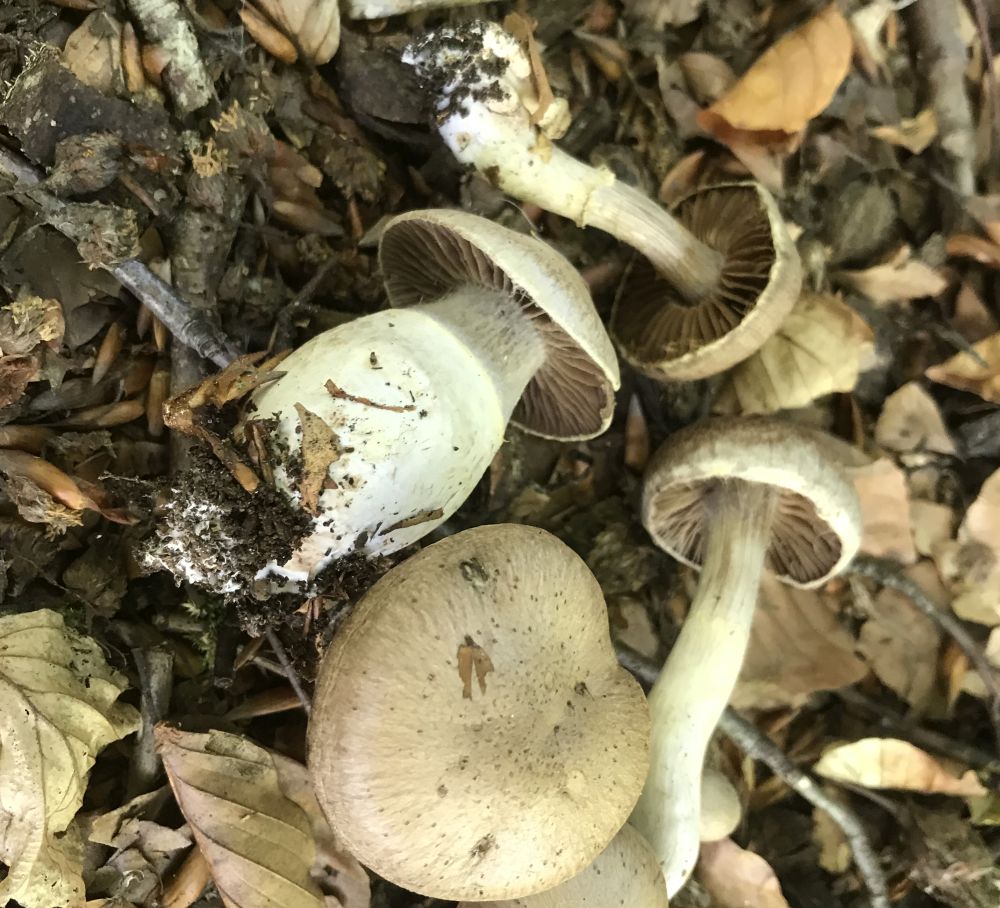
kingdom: Fungi
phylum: Basidiomycota
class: Agaricomycetes
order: Agaricales
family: Cortinariaceae
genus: Cortinarius
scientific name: Cortinarius torvus
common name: champignonagtig slørhat
